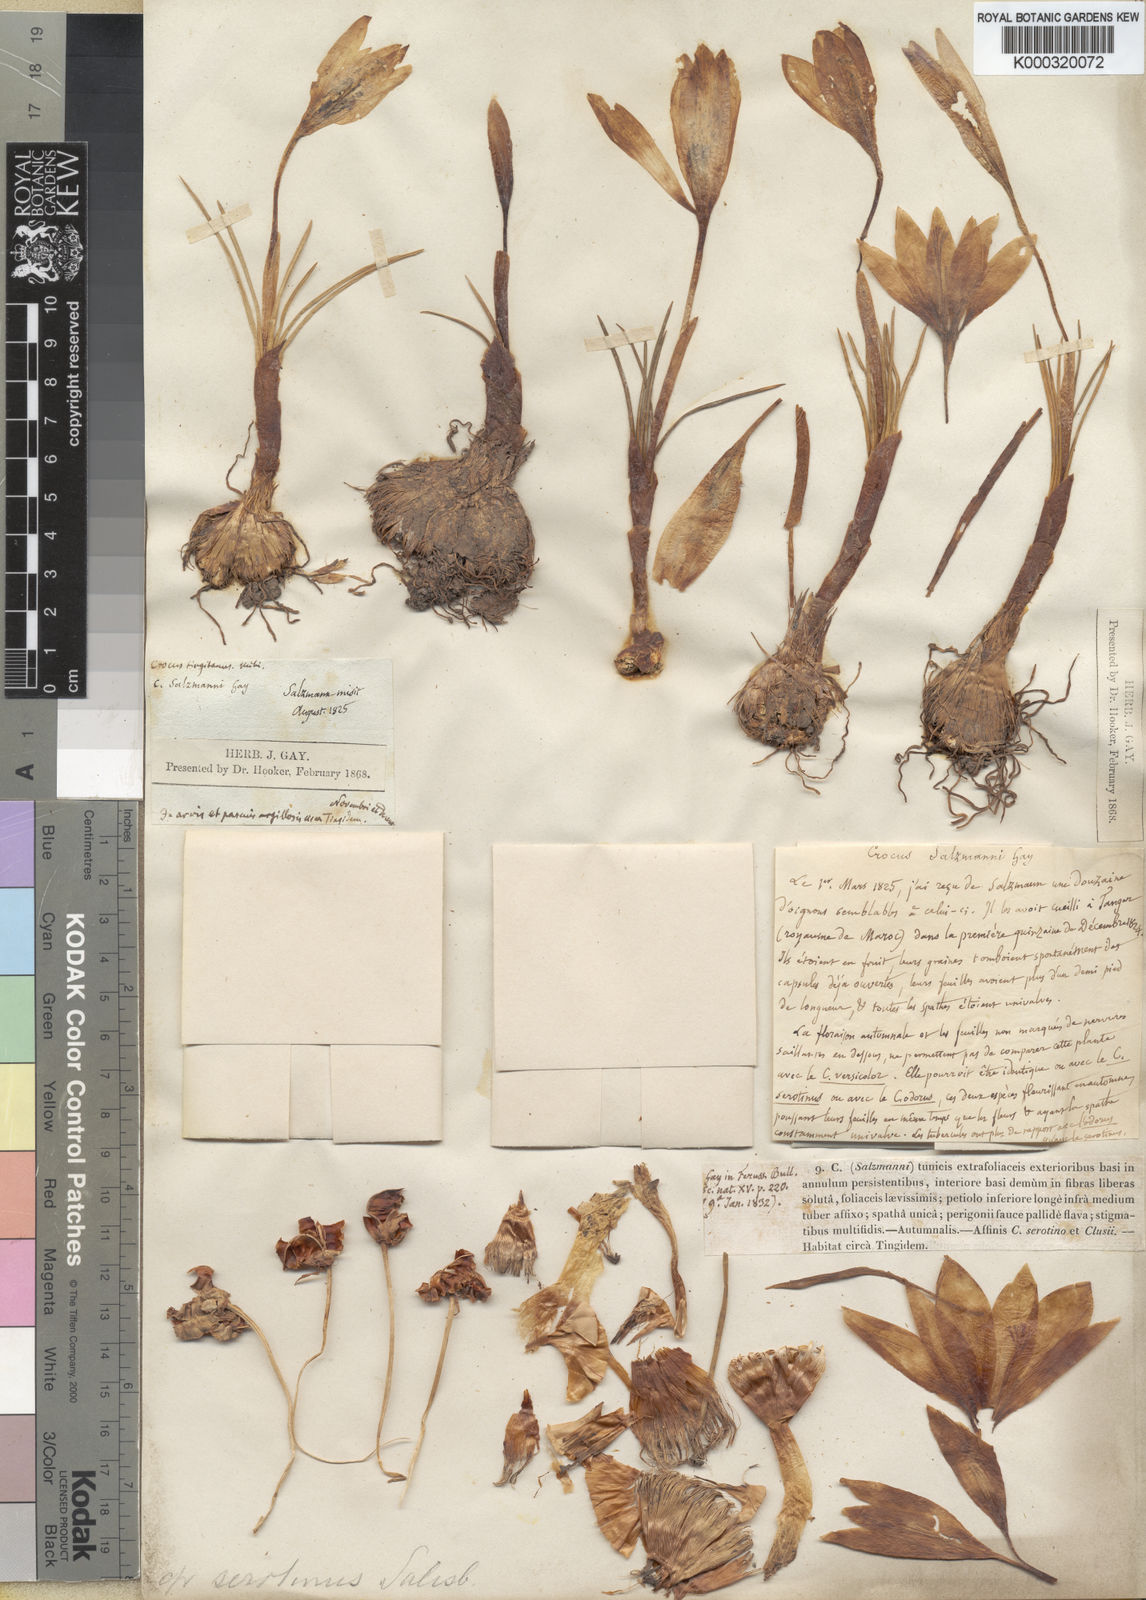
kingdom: Plantae
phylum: Tracheophyta
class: Liliopsida
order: Asparagales
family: Iridaceae
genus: Crocus
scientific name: Crocus salzmannii
